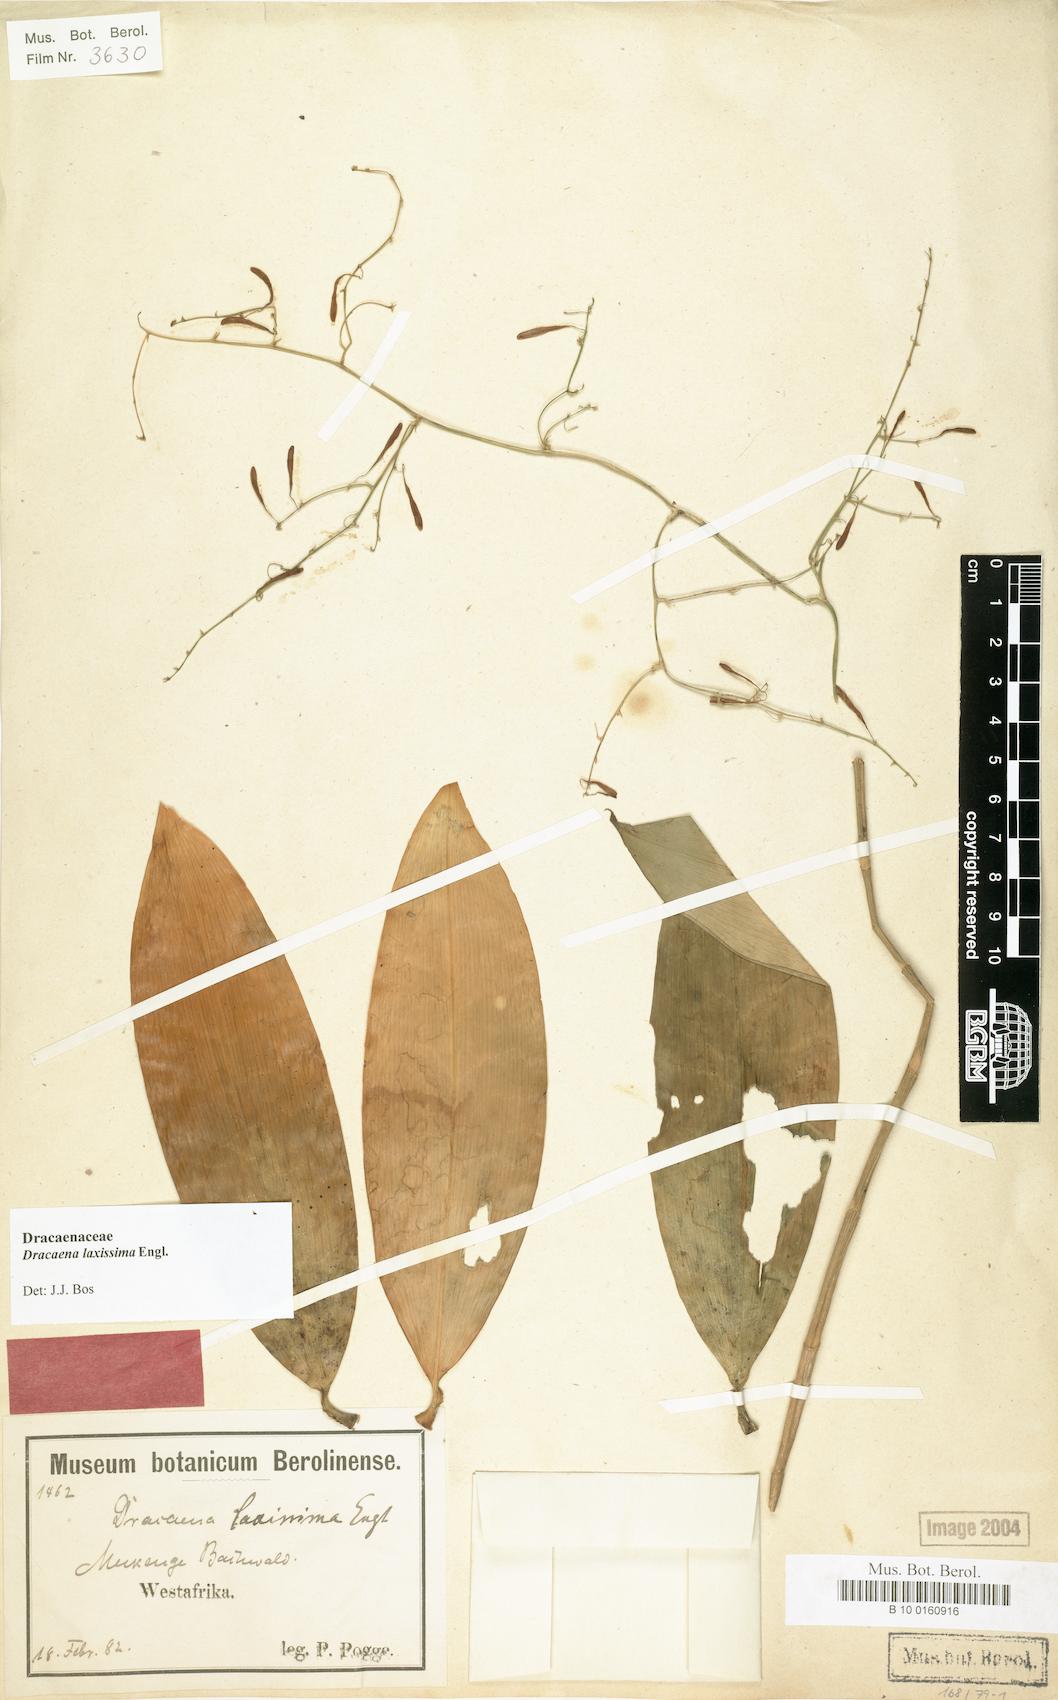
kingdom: Plantae
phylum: Tracheophyta
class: Liliopsida
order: Asparagales
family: Asparagaceae
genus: Dracaena
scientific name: Dracaena laxissima
